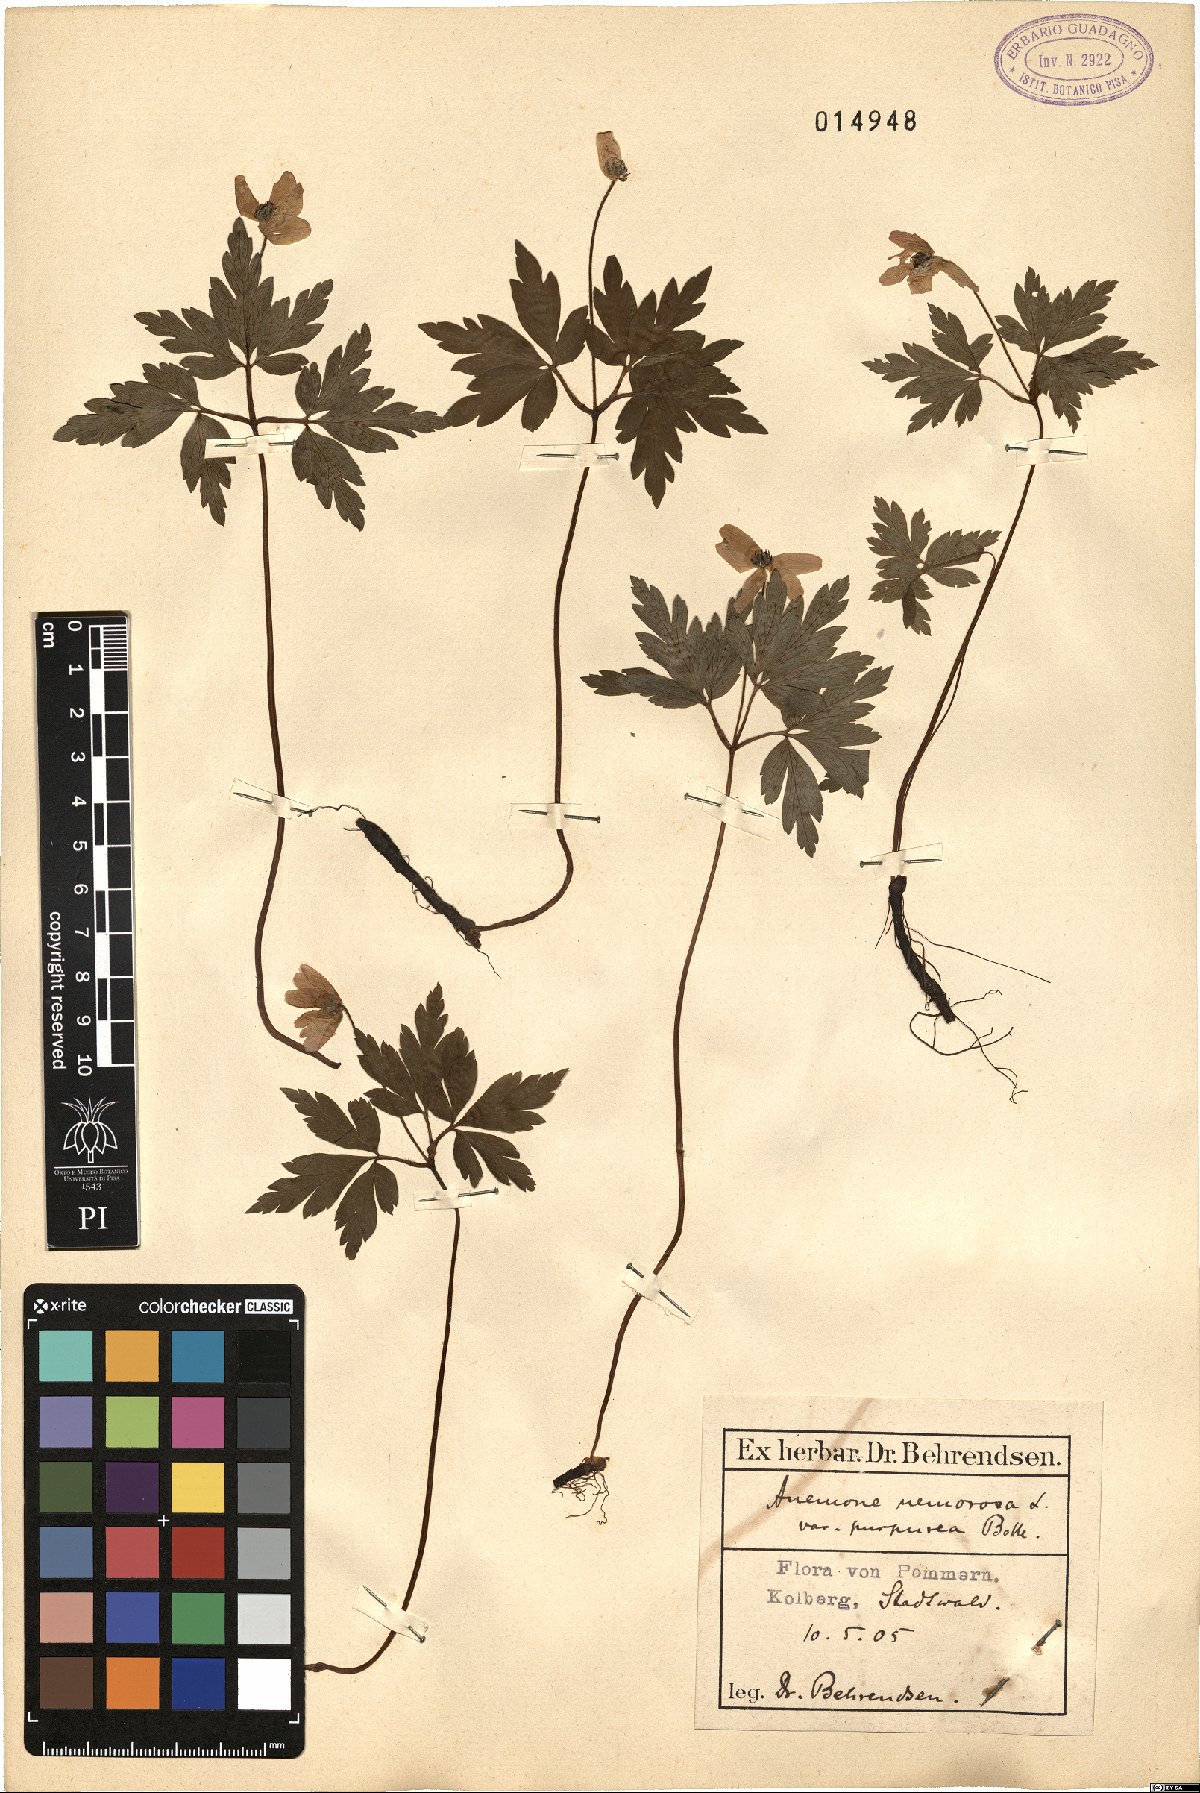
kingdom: Plantae
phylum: Tracheophyta
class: Magnoliopsida
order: Ranunculales
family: Ranunculaceae
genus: Anemone
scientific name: Anemone nemorosa
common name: Wood anemone
